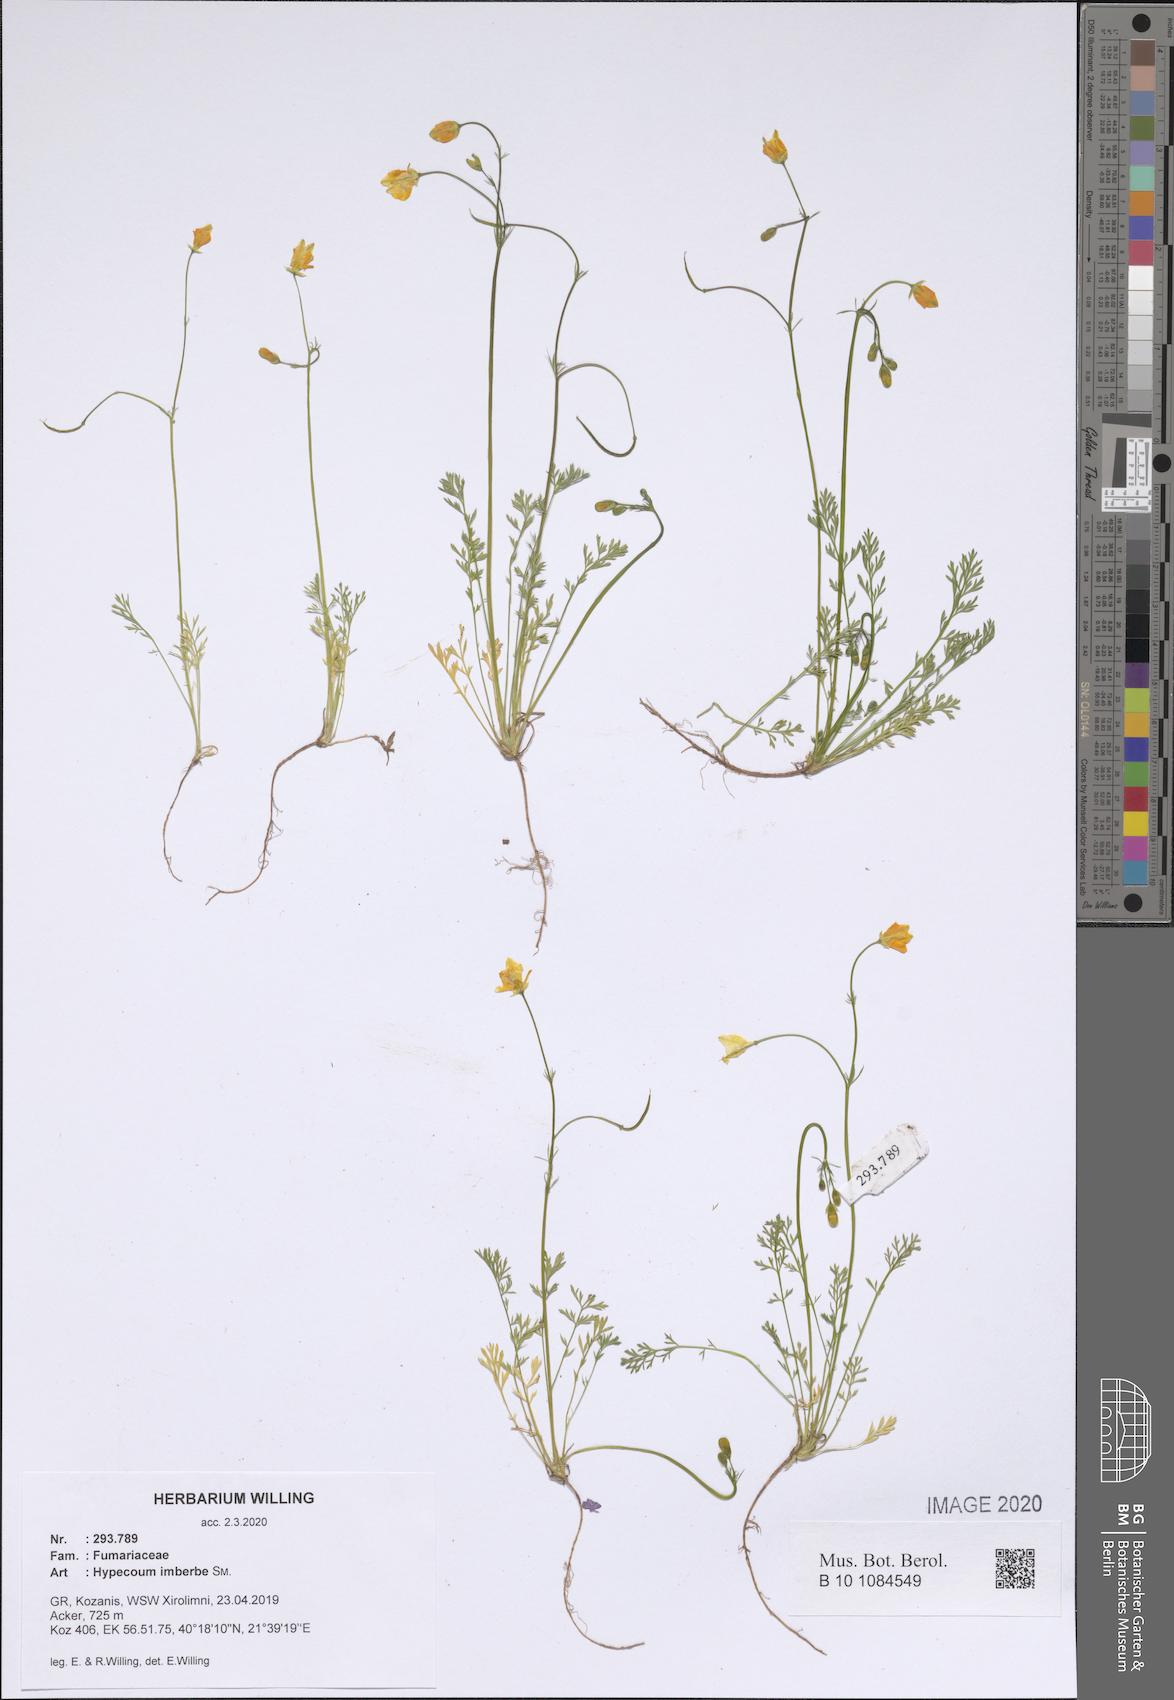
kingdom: Plantae
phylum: Tracheophyta
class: Magnoliopsida
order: Ranunculales
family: Papaveraceae
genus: Hypecoum
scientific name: Hypecoum imberbe
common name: Sicklefruit hypecoum
